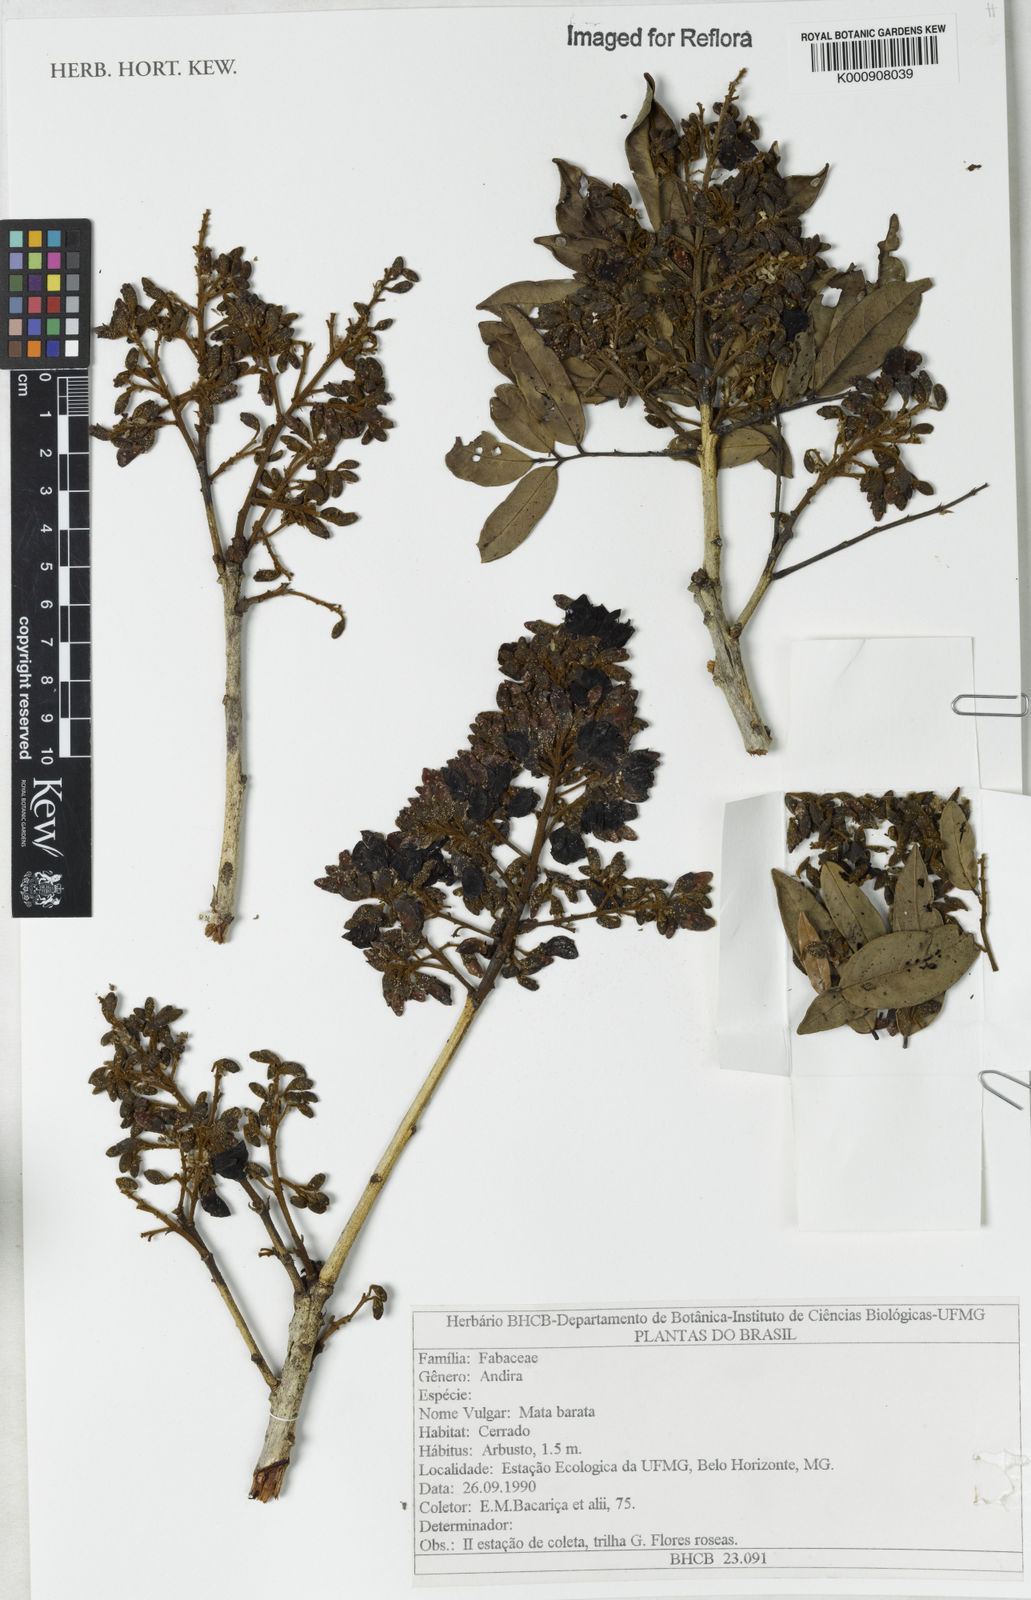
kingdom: Plantae
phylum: Tracheophyta
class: Magnoliopsida
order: Fabales
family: Fabaceae
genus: Andira
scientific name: Andira
